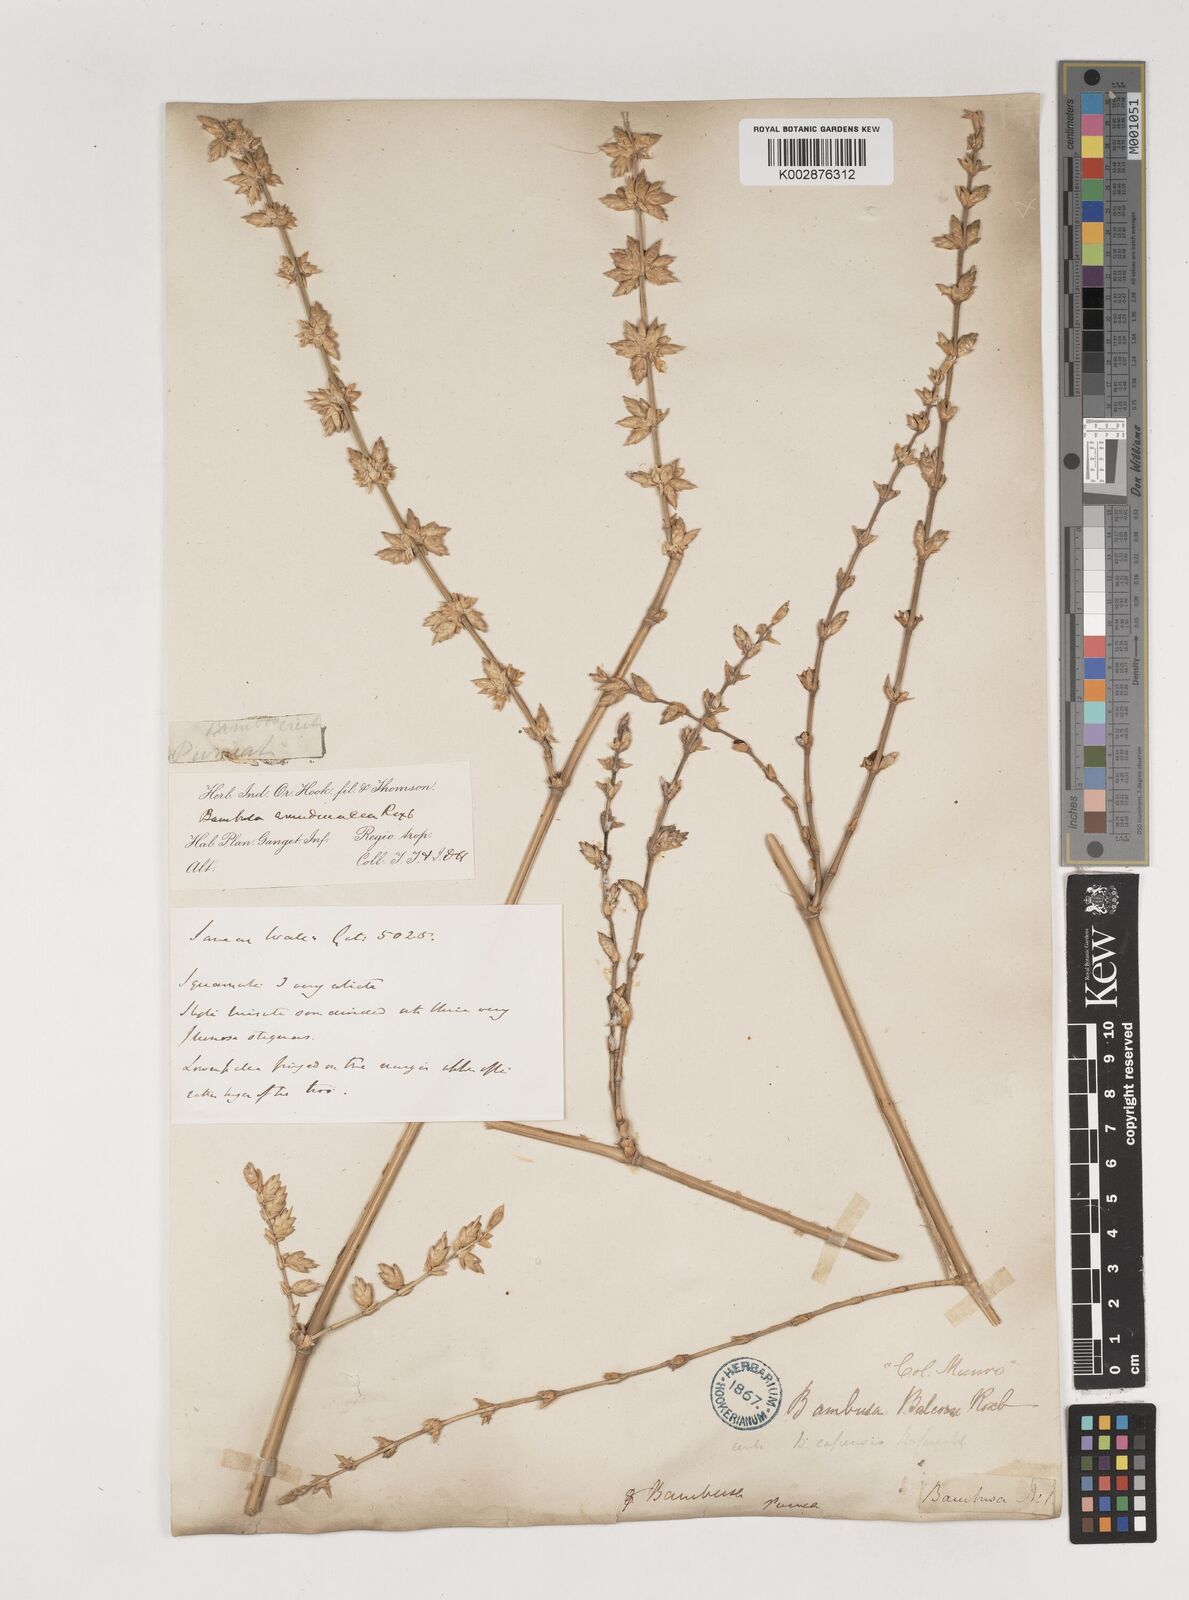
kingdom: Plantae
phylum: Tracheophyta
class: Liliopsida
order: Poales
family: Poaceae
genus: Bambusa
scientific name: Bambusa balcooa
